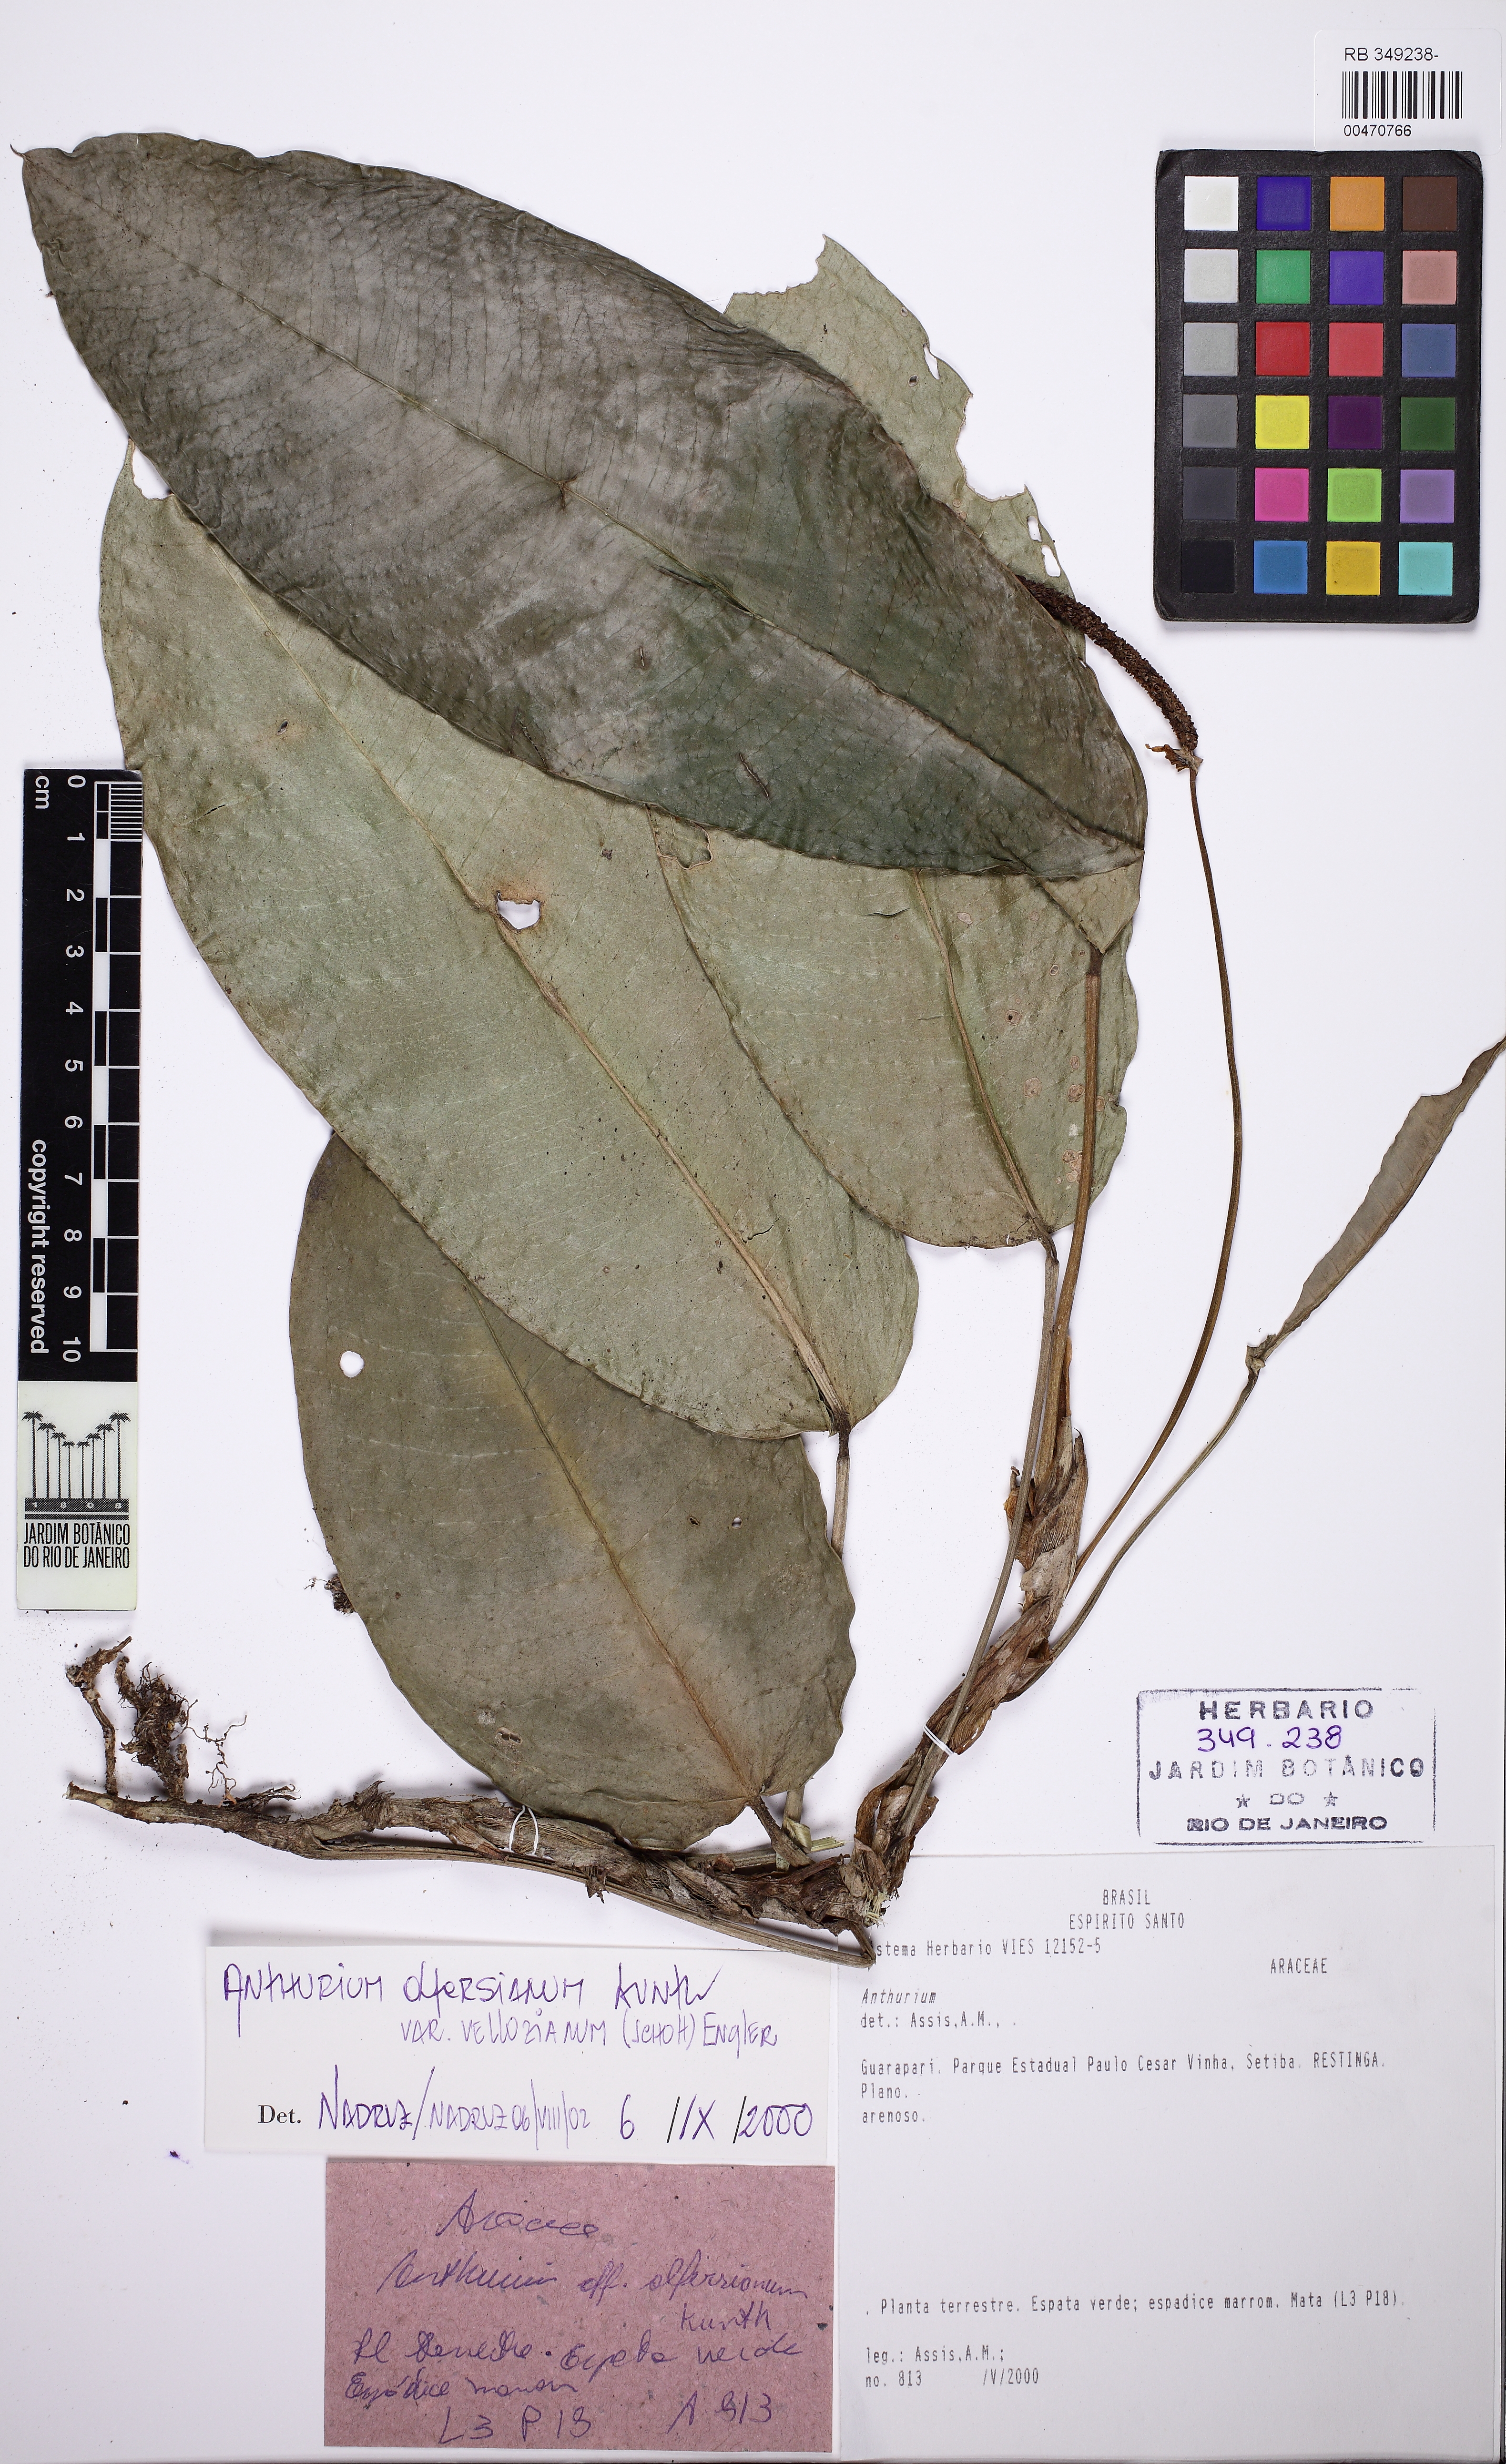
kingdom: Plantae
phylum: Tracheophyta
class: Liliopsida
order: Alismatales
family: Araceae
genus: Anthurium
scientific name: Anthurium parasiticum
